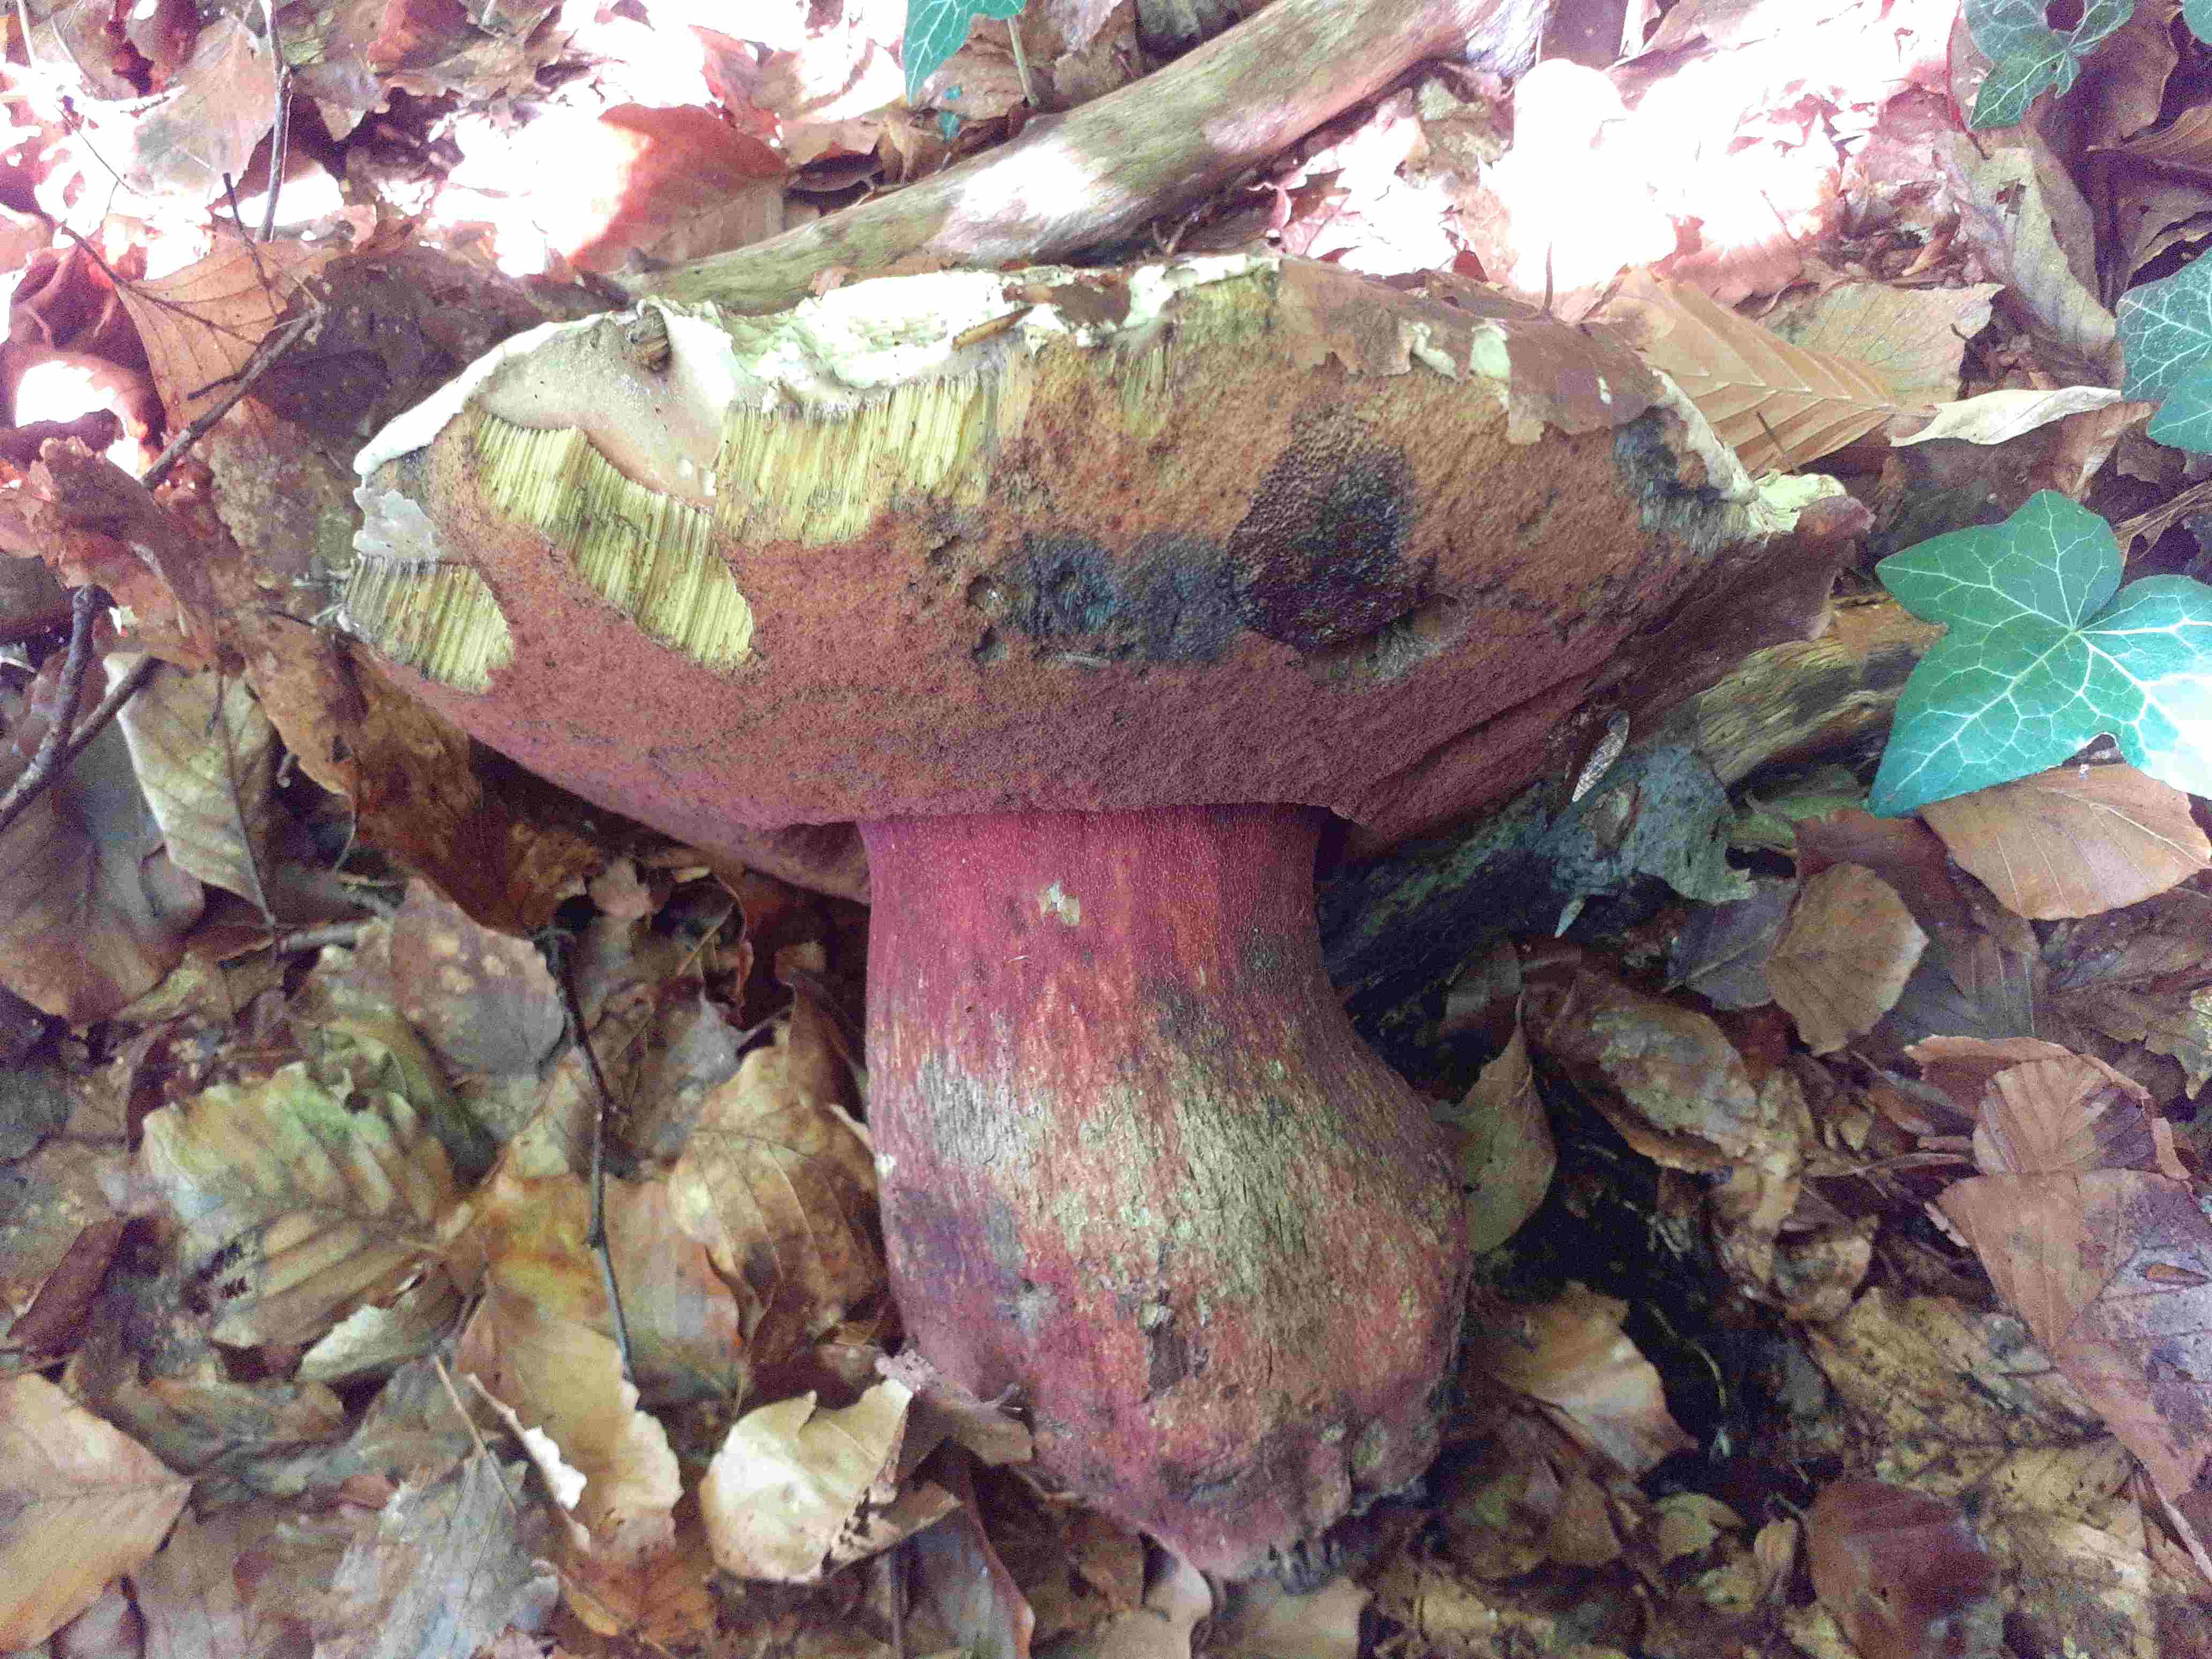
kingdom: Fungi
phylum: Basidiomycota
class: Agaricomycetes
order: Boletales
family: Boletaceae
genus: Rubroboletus
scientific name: Rubroboletus satanas
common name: Satans rørhat
